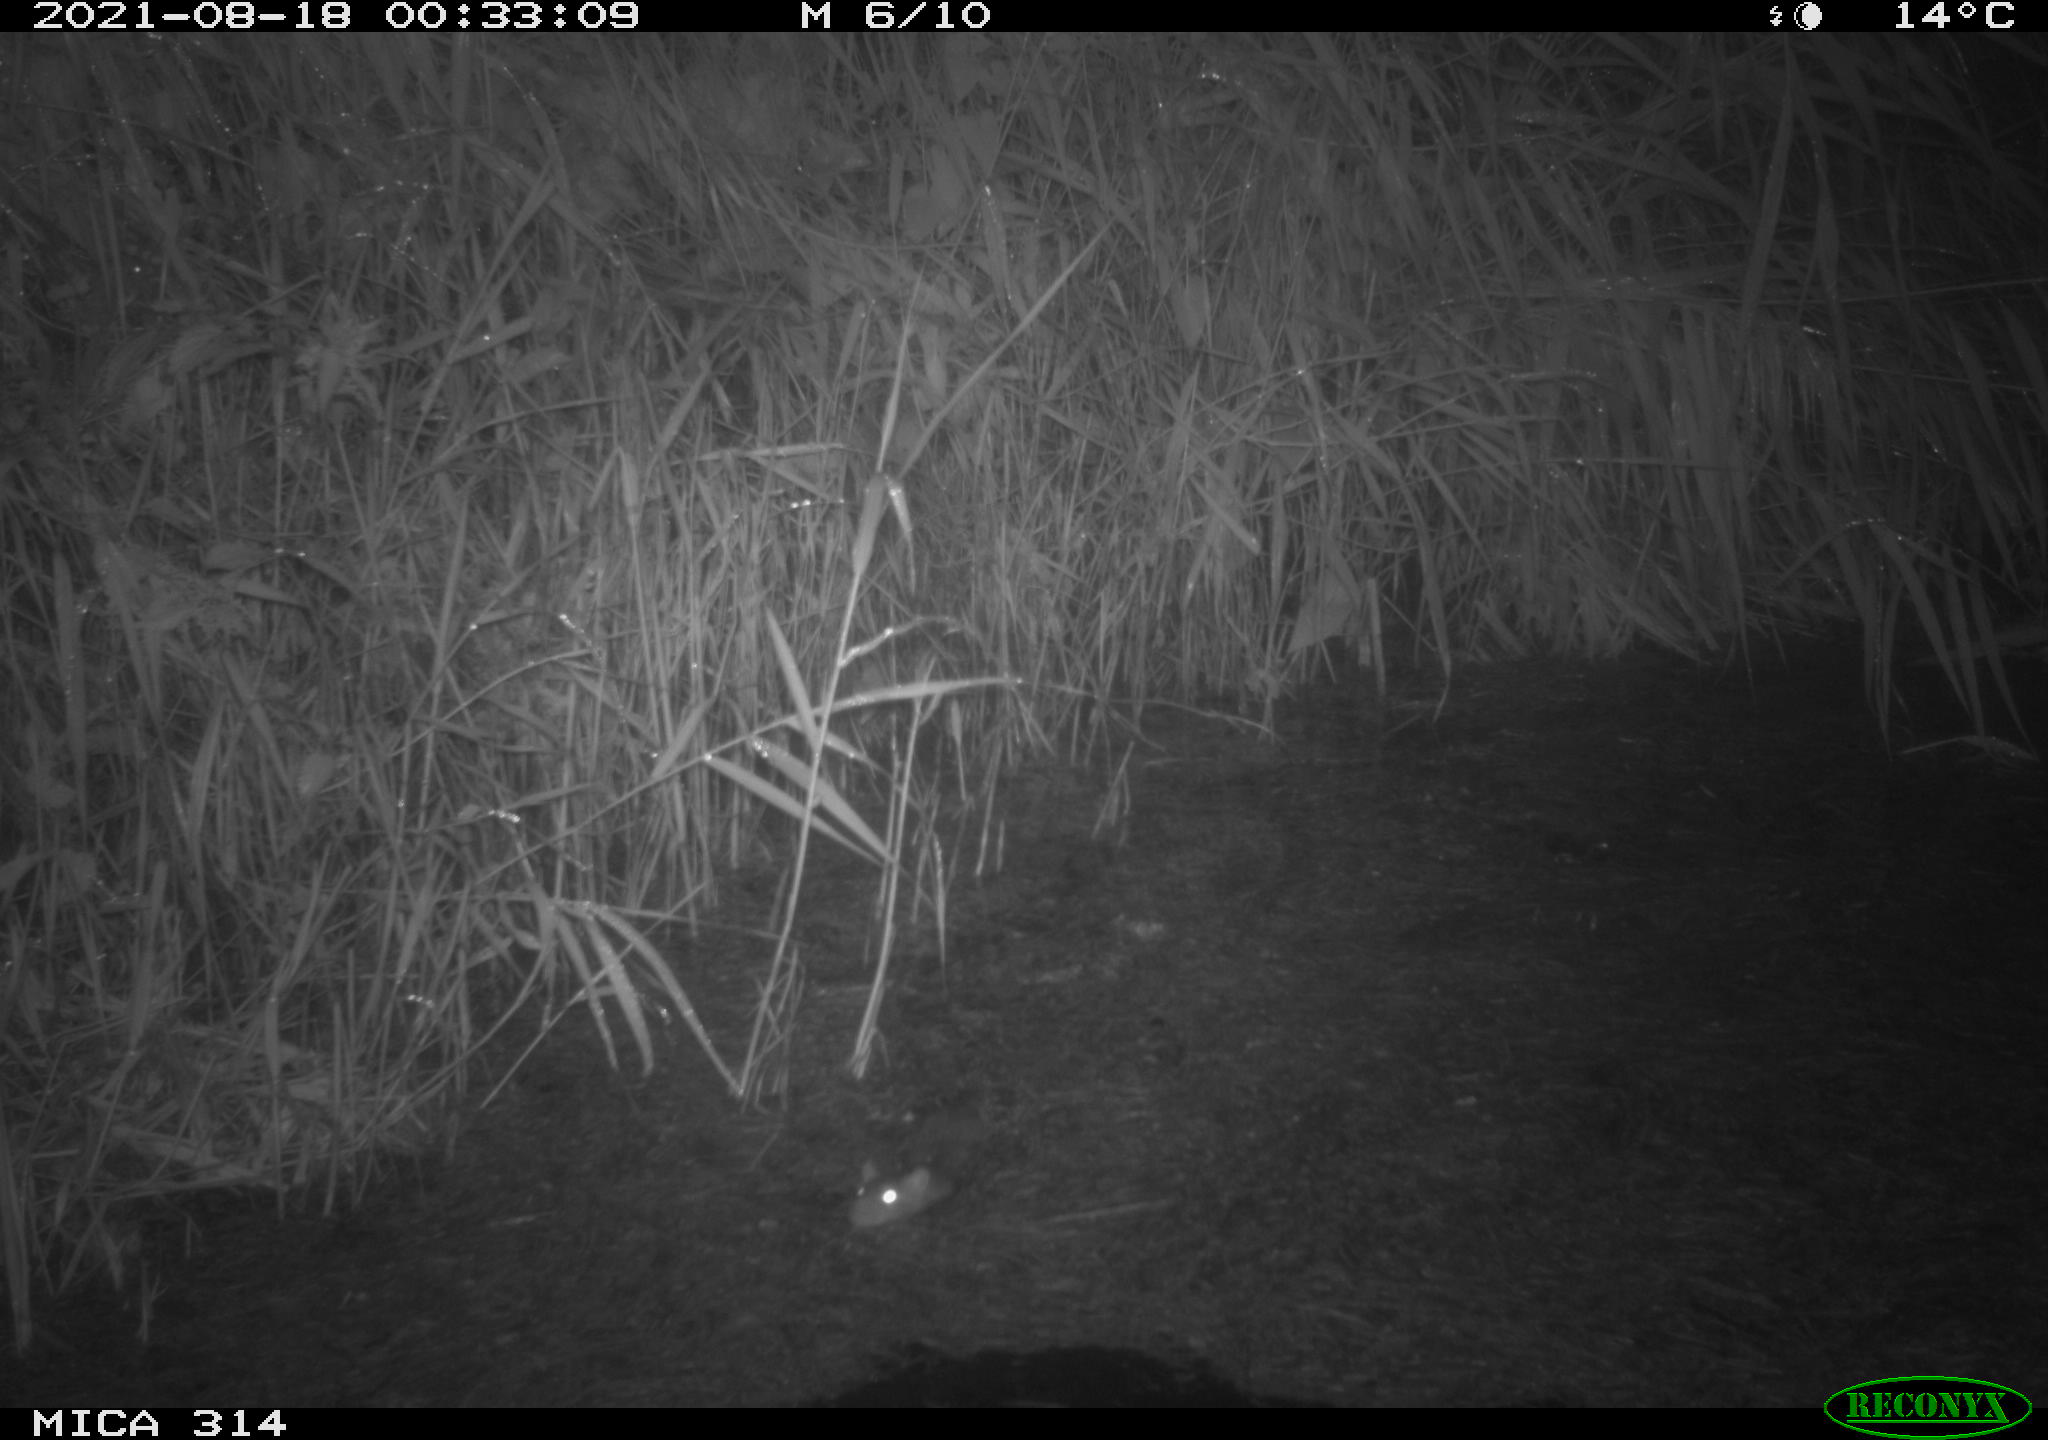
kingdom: Animalia
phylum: Chordata
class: Mammalia
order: Rodentia
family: Muridae
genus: Rattus
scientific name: Rattus norvegicus
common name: Brown rat
